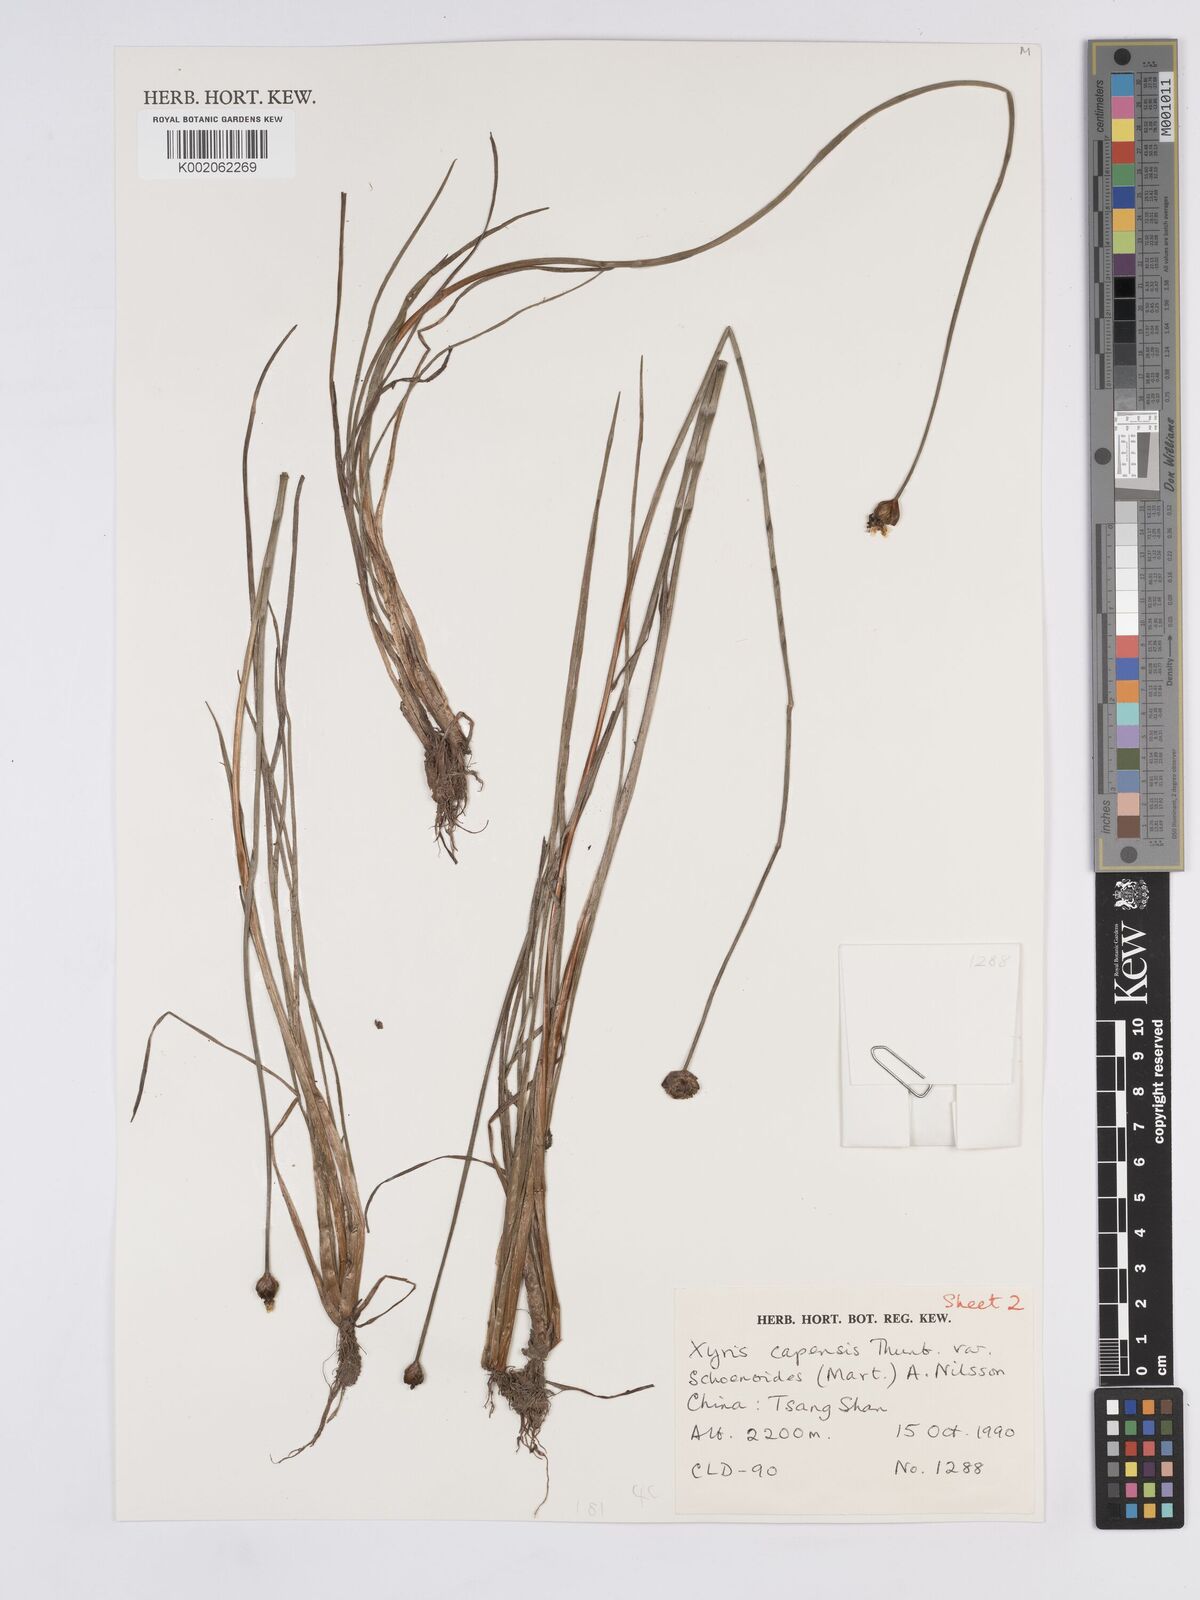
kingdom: Plantae
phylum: Tracheophyta
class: Liliopsida
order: Poales
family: Xyridaceae
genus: Xyris
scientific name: Xyris capensis
